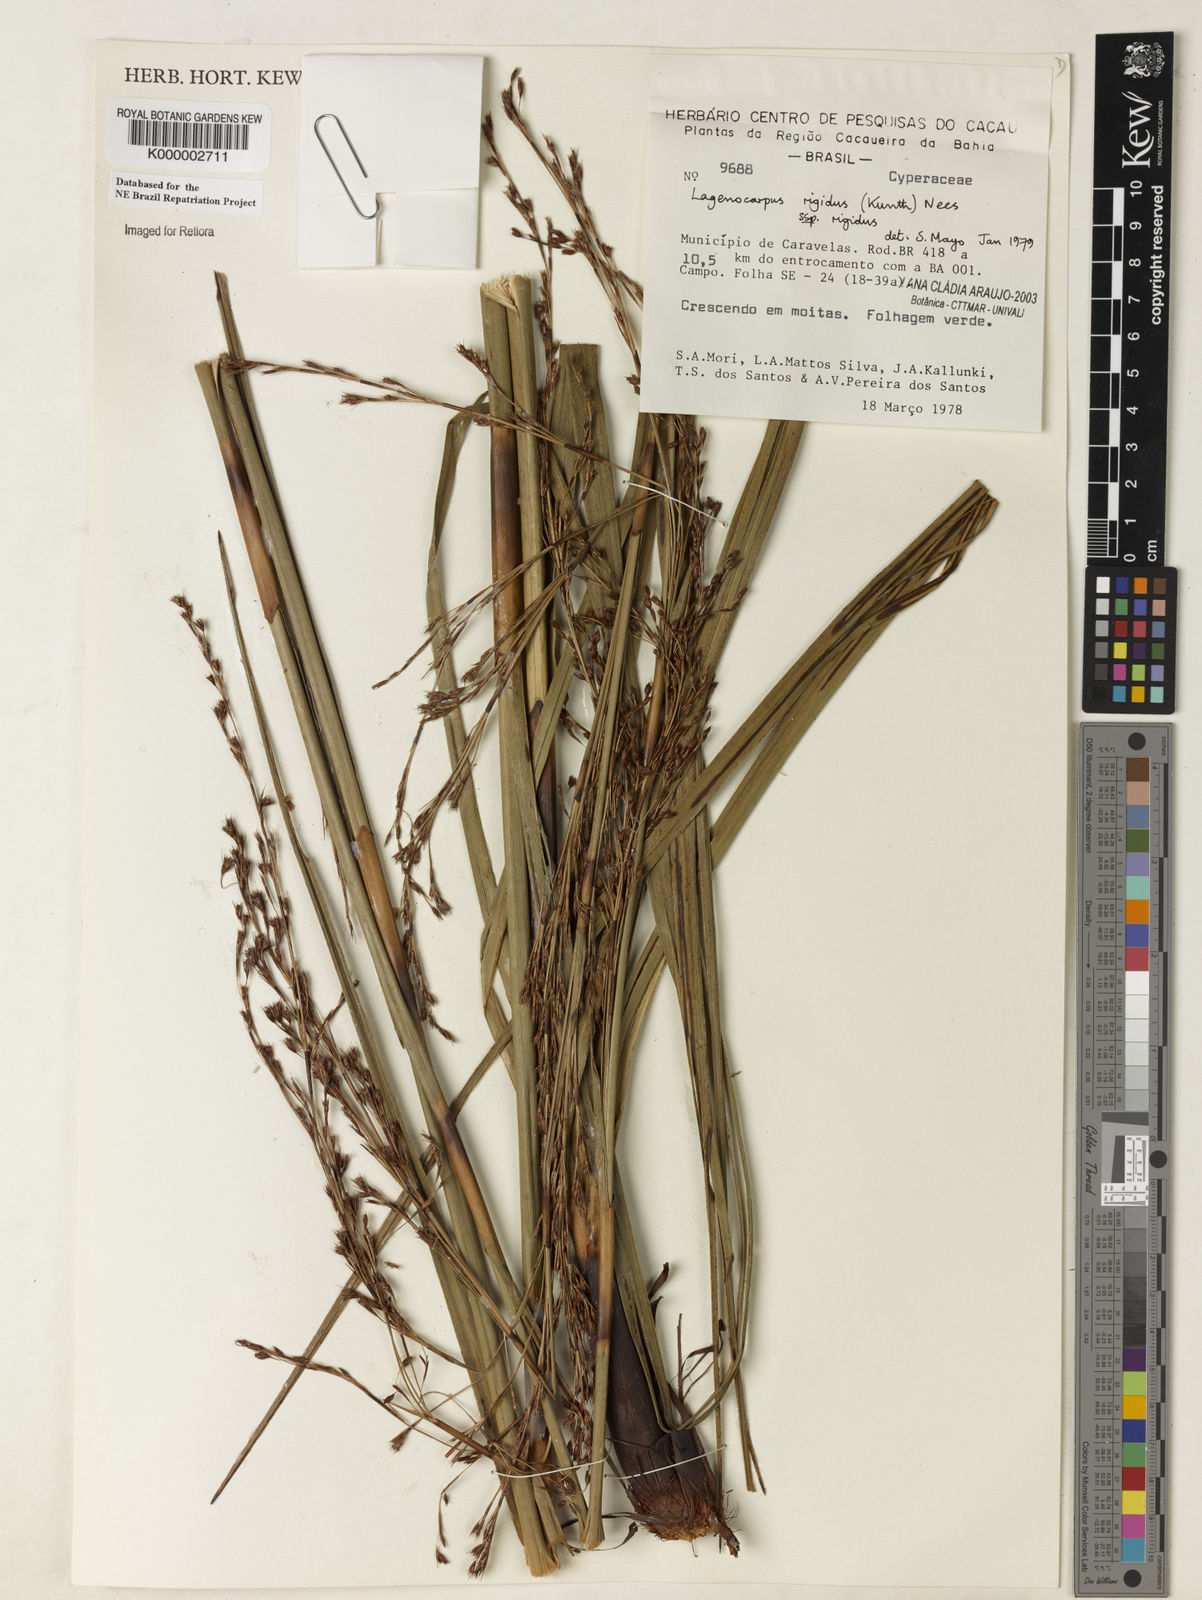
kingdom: Plantae
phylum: Tracheophyta
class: Liliopsida
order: Poales
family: Cyperaceae
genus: Lagenocarpus
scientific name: Lagenocarpus rigidus
